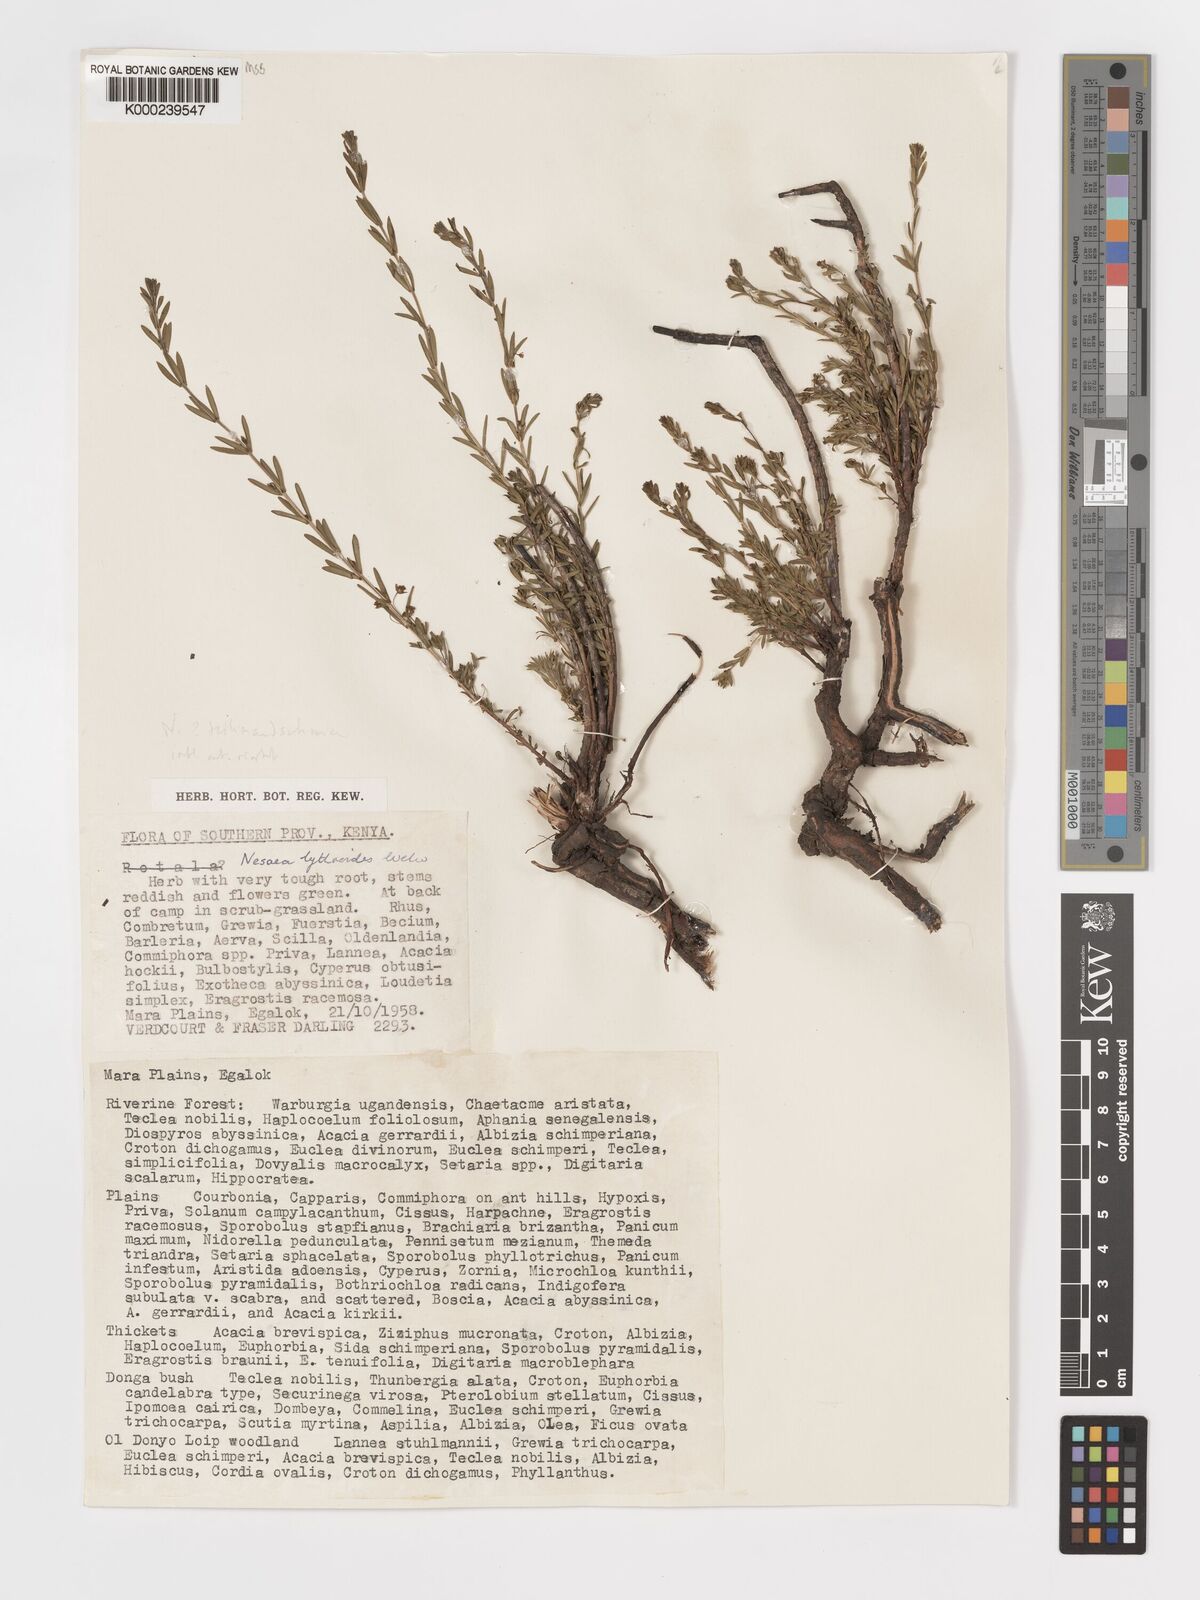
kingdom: Plantae
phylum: Tracheophyta
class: Magnoliopsida
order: Myrtales
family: Lythraceae
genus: Ammannia
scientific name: Ammannia kilimandscharica
